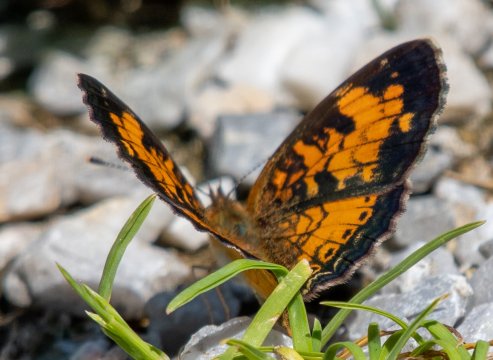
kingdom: Animalia
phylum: Arthropoda
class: Insecta
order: Lepidoptera
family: Nymphalidae
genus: Phyciodes
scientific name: Phyciodes tharos
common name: Northern Crescent
